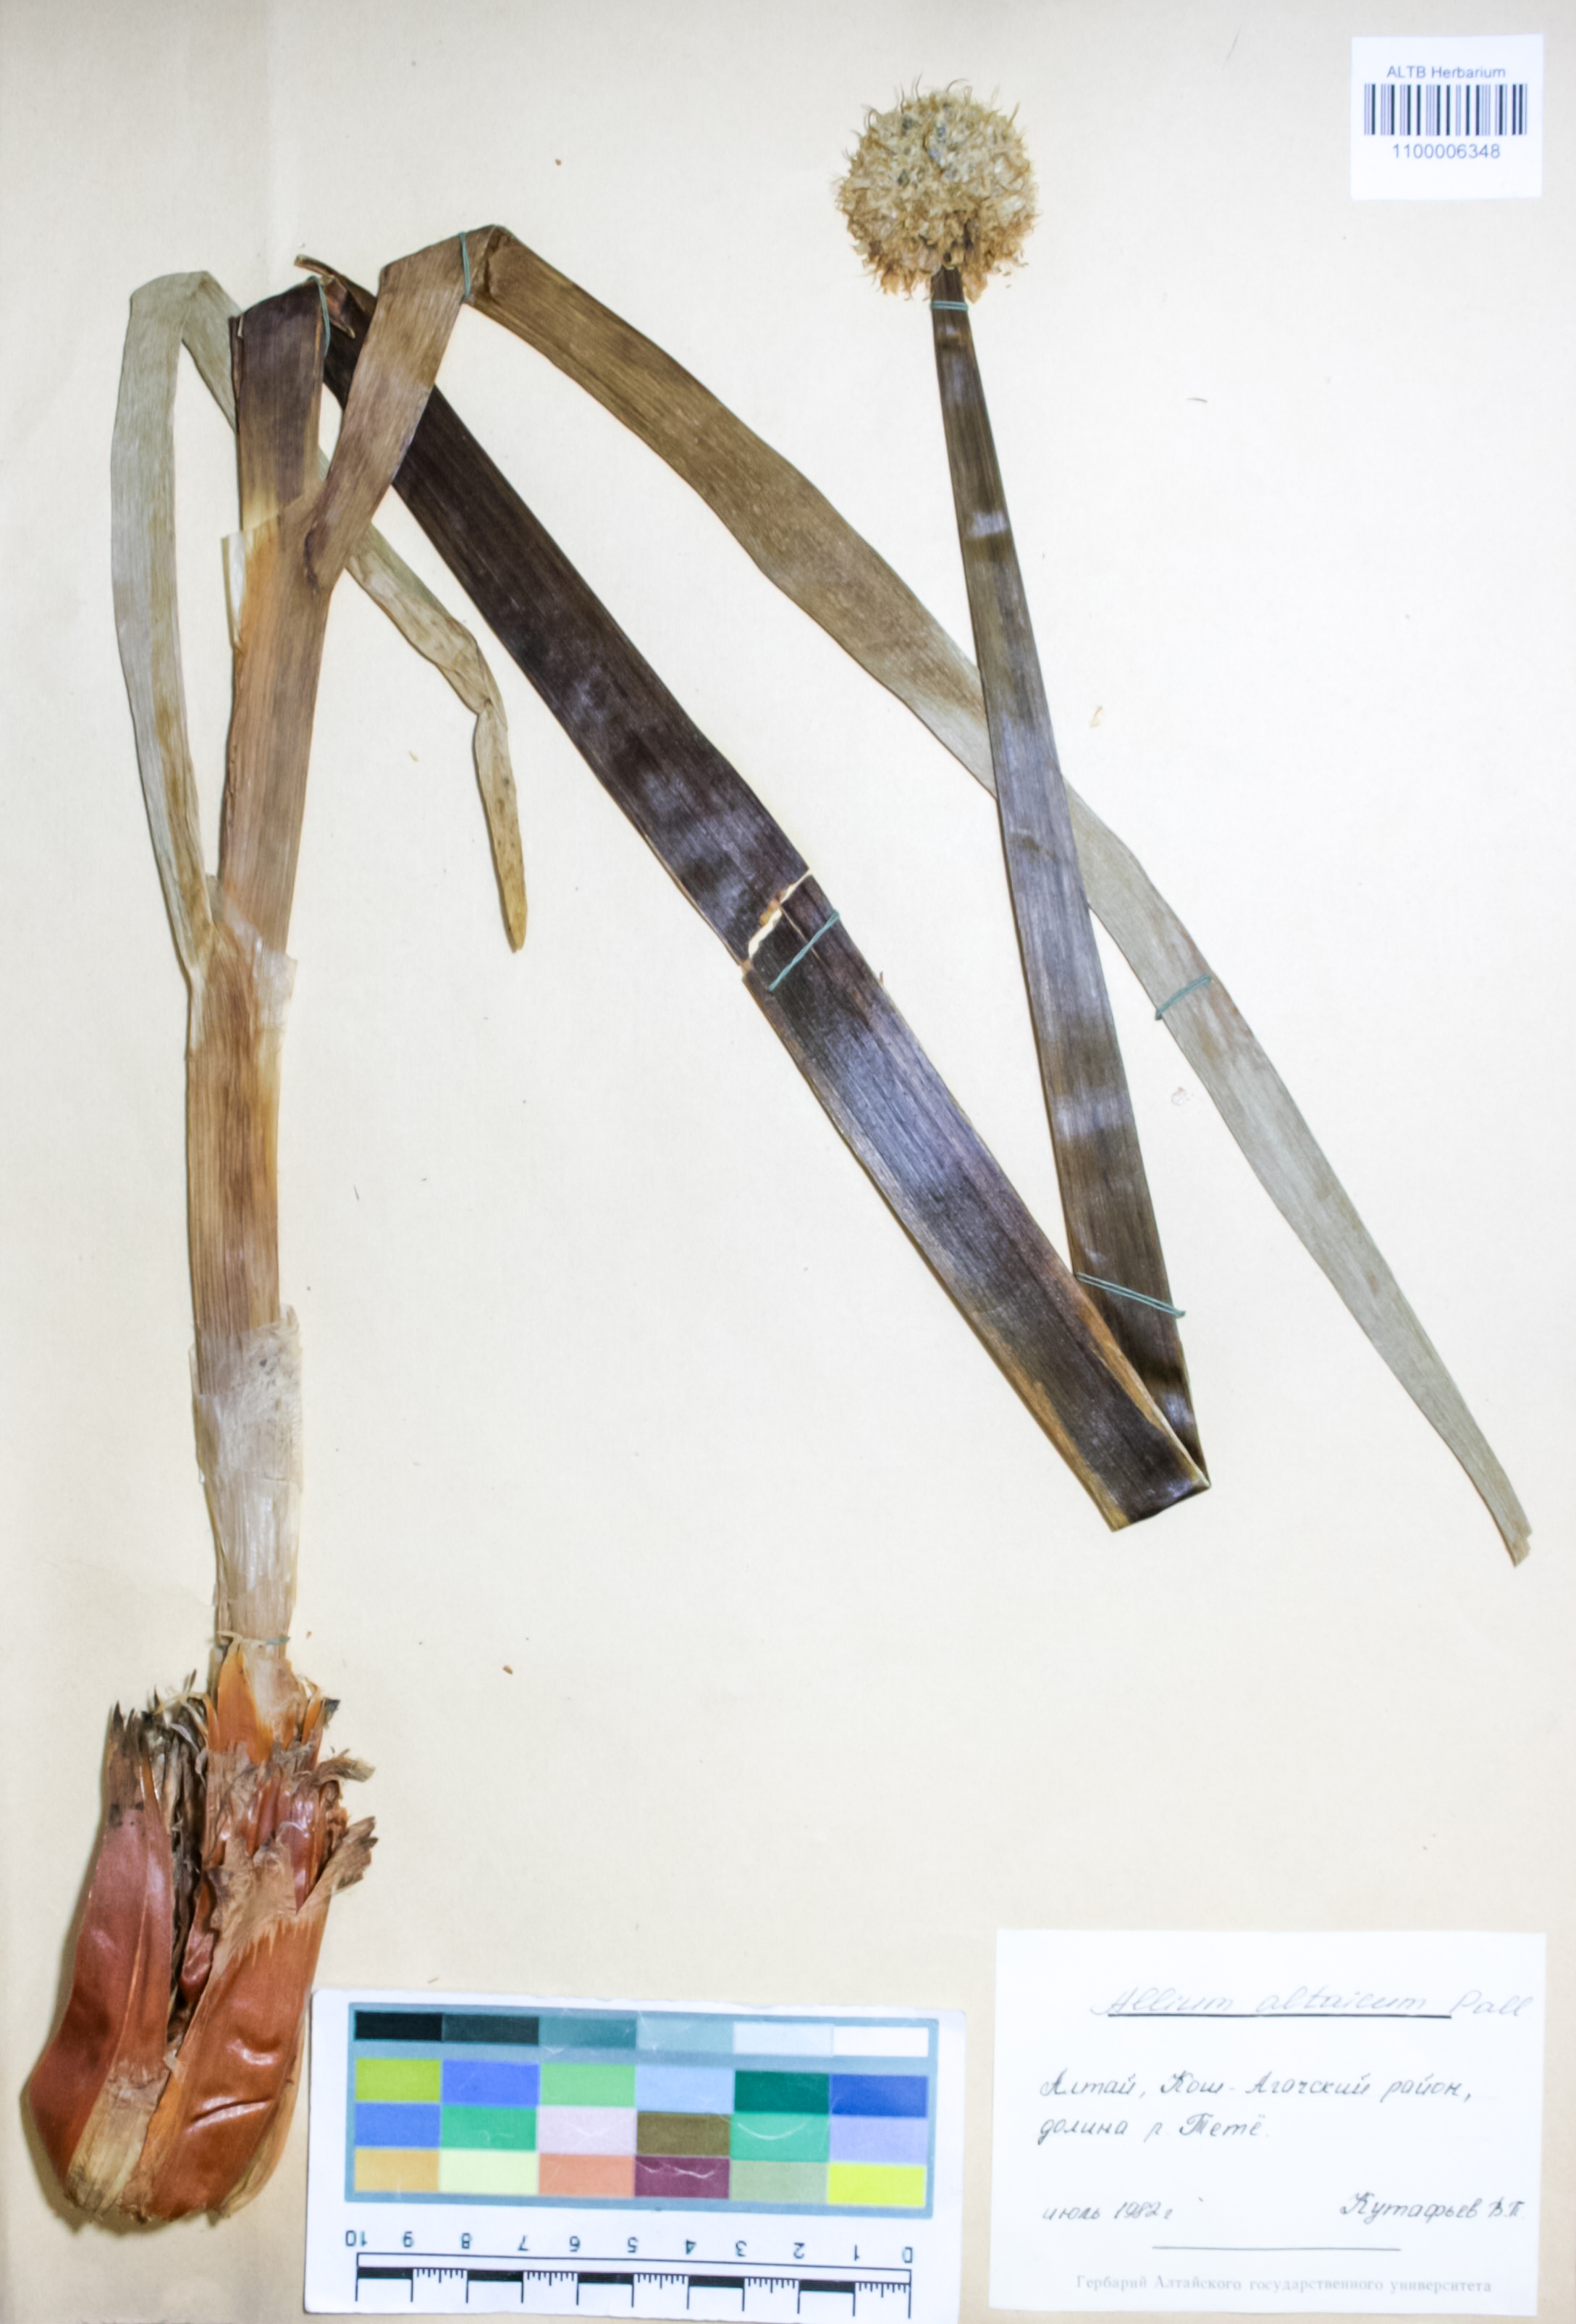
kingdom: Plantae
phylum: Tracheophyta
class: Liliopsida
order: Asparagales
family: Amaryllidaceae
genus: Allium
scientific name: Allium altaicum
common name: Altai onion
